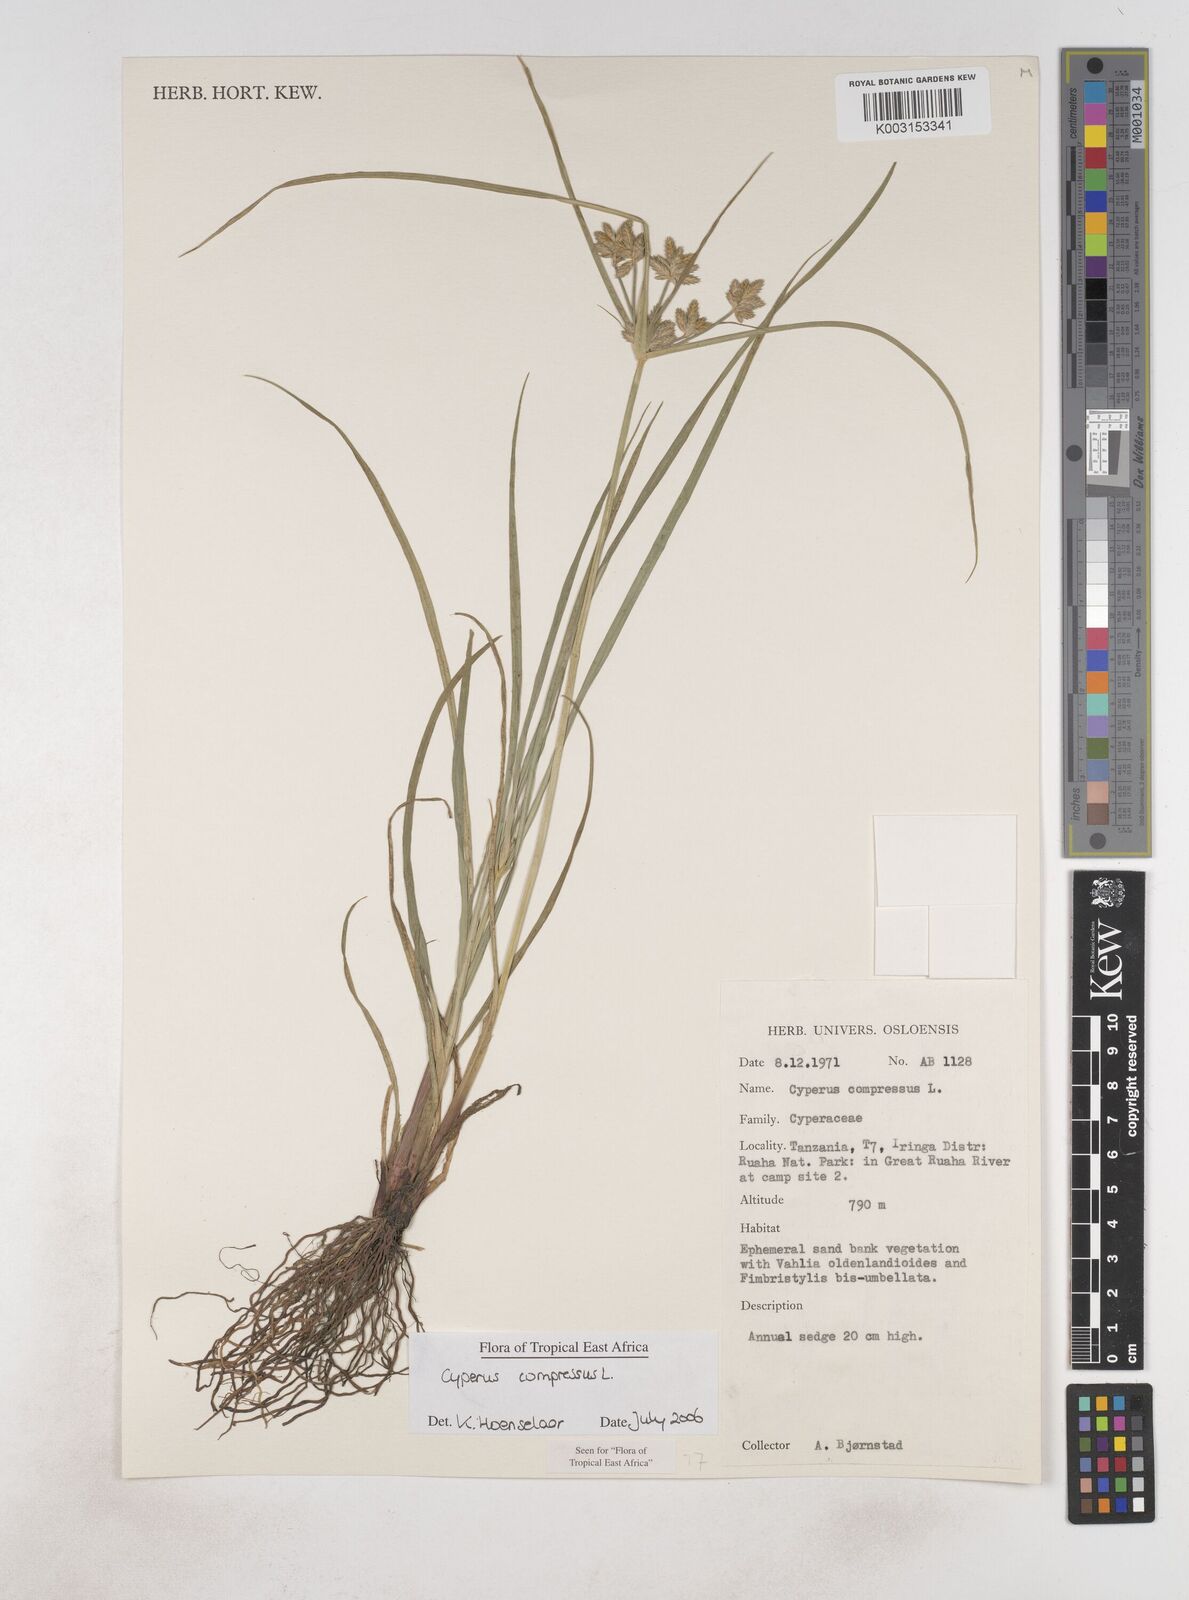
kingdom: Plantae
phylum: Tracheophyta
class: Liliopsida
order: Poales
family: Cyperaceae
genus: Cyperus
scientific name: Cyperus compressus
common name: Poorland flatsedge
